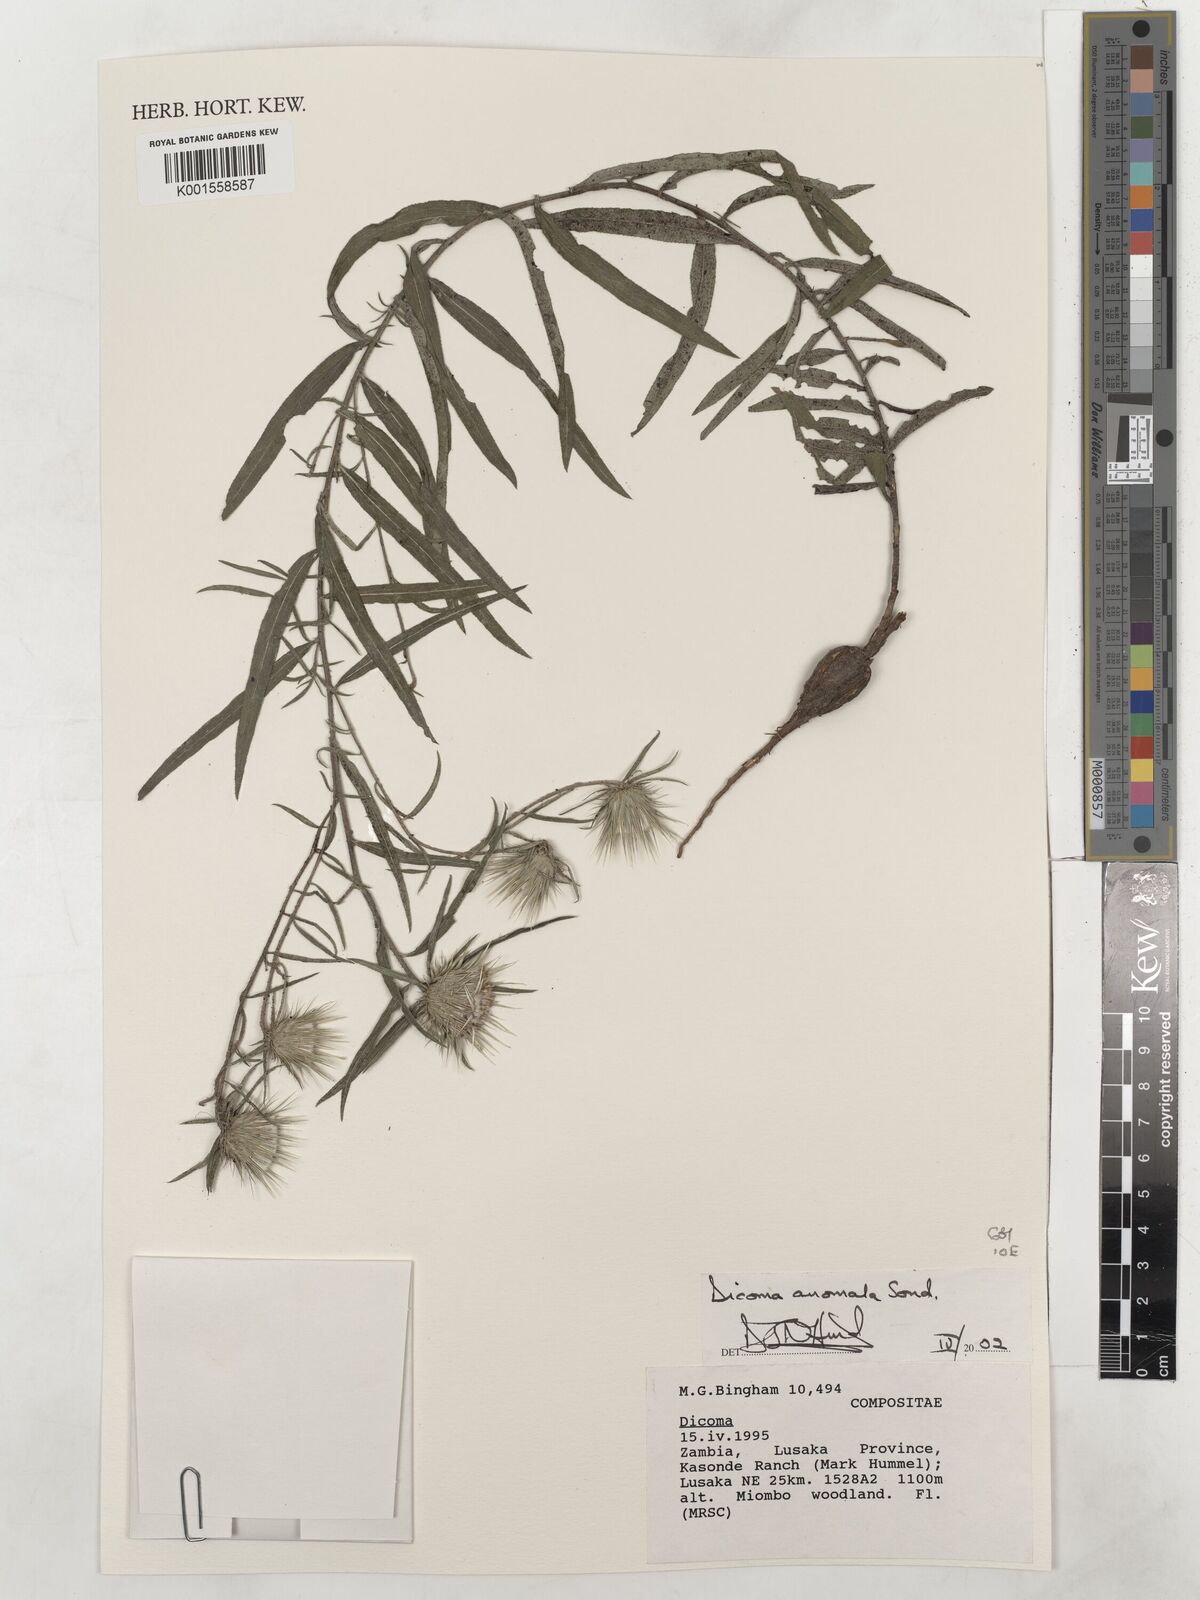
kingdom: Plantae
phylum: Tracheophyta
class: Magnoliopsida
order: Asterales
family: Asteraceae
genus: Dicoma
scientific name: Dicoma anomala
